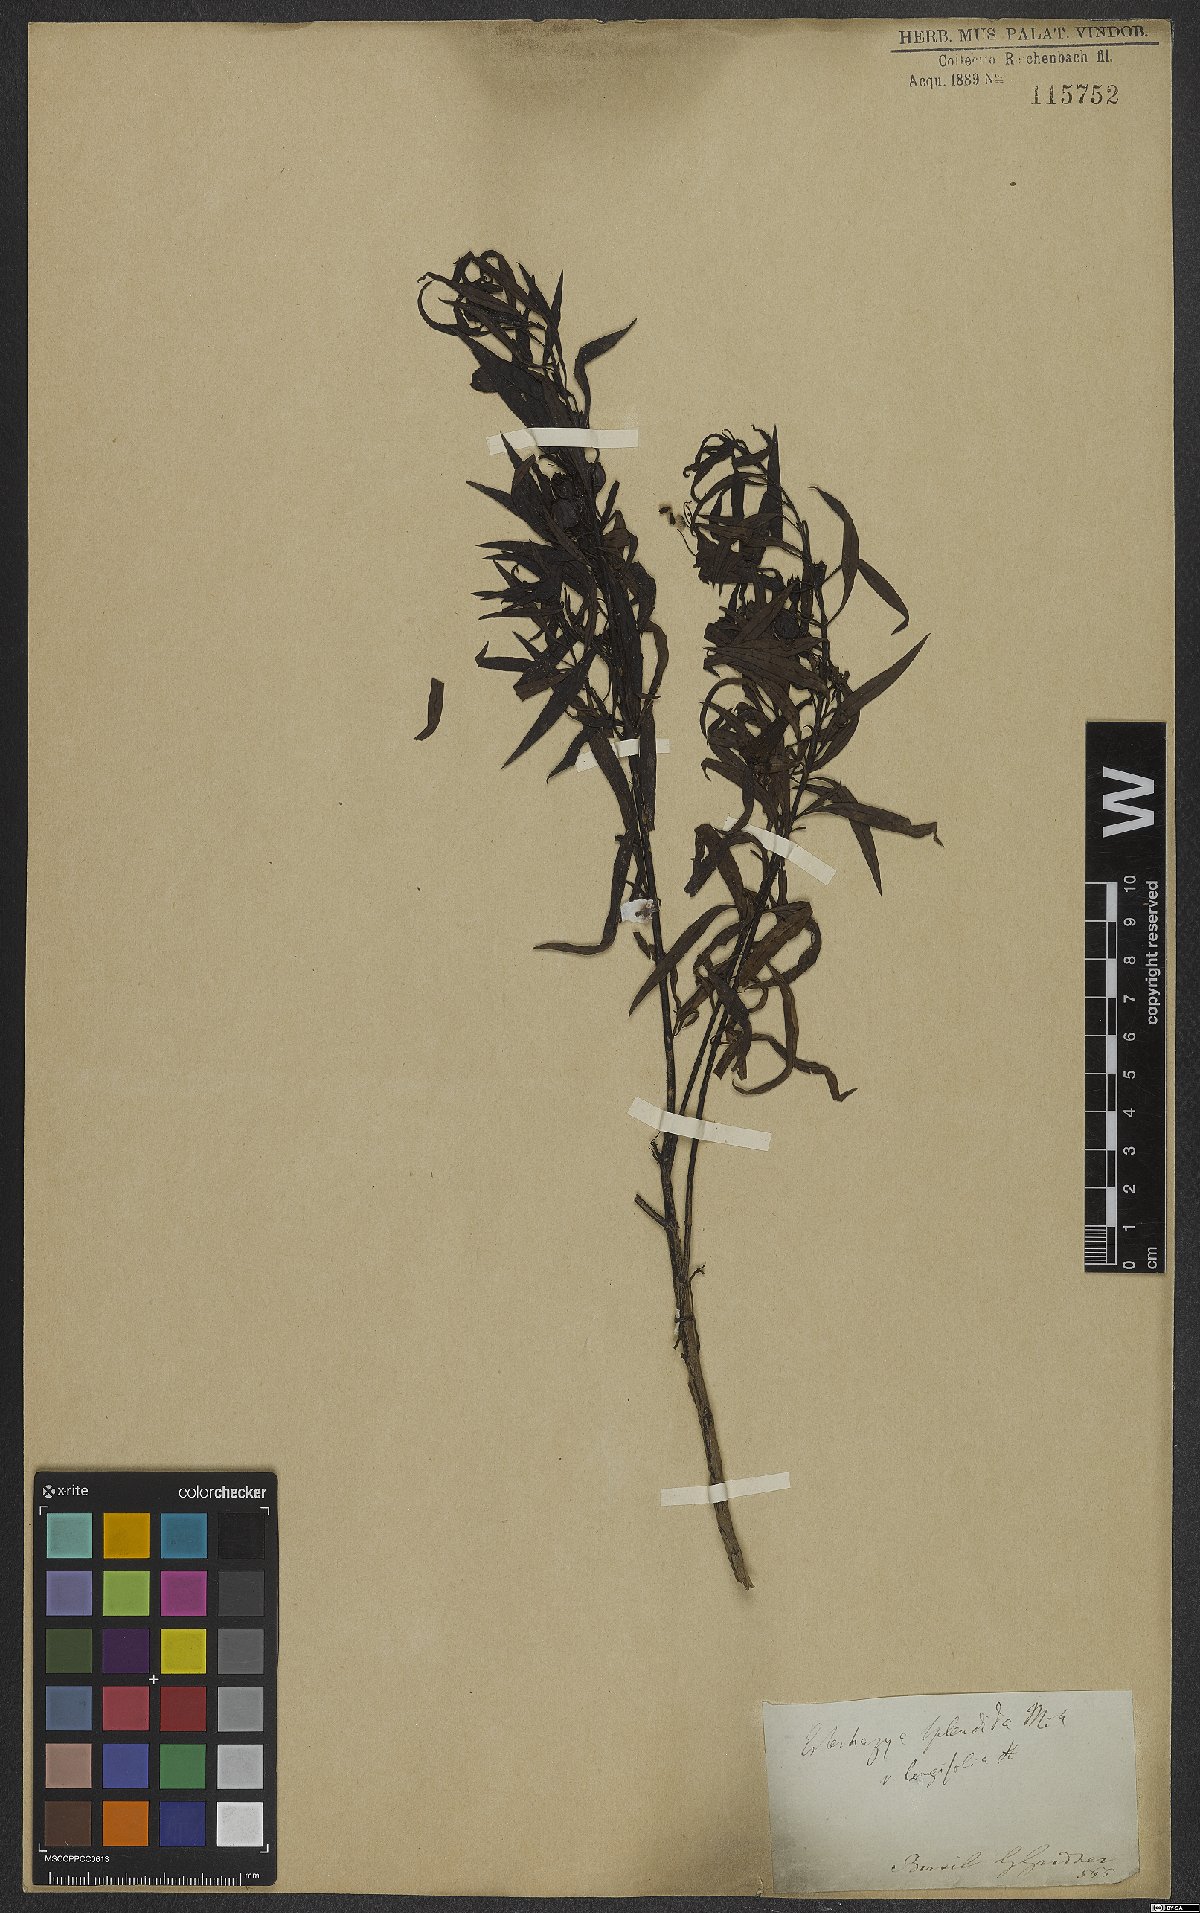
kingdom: Plantae
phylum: Tracheophyta
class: Magnoliopsida
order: Lamiales
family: Orobanchaceae
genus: Esterhazya
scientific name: Esterhazya splendida
